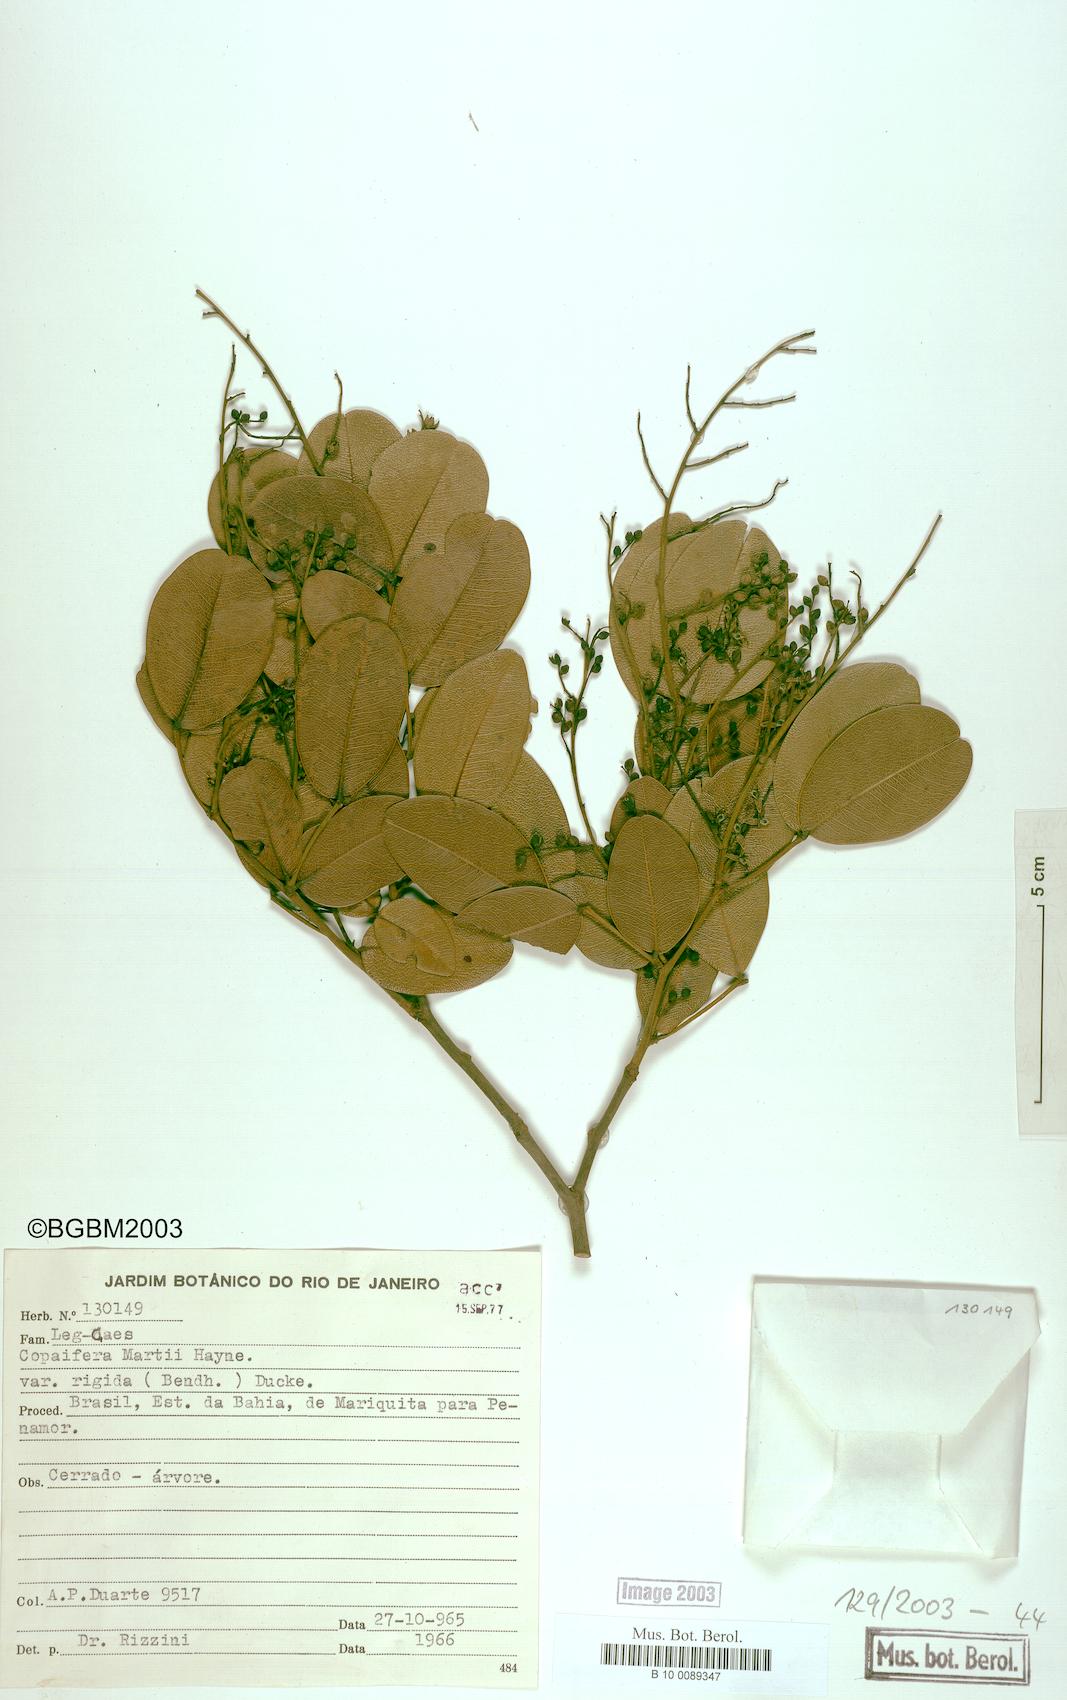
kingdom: Plantae
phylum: Tracheophyta
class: Magnoliopsida
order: Fabales
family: Fabaceae
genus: Copaifera
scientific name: Copaifera martii
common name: Copaiba
